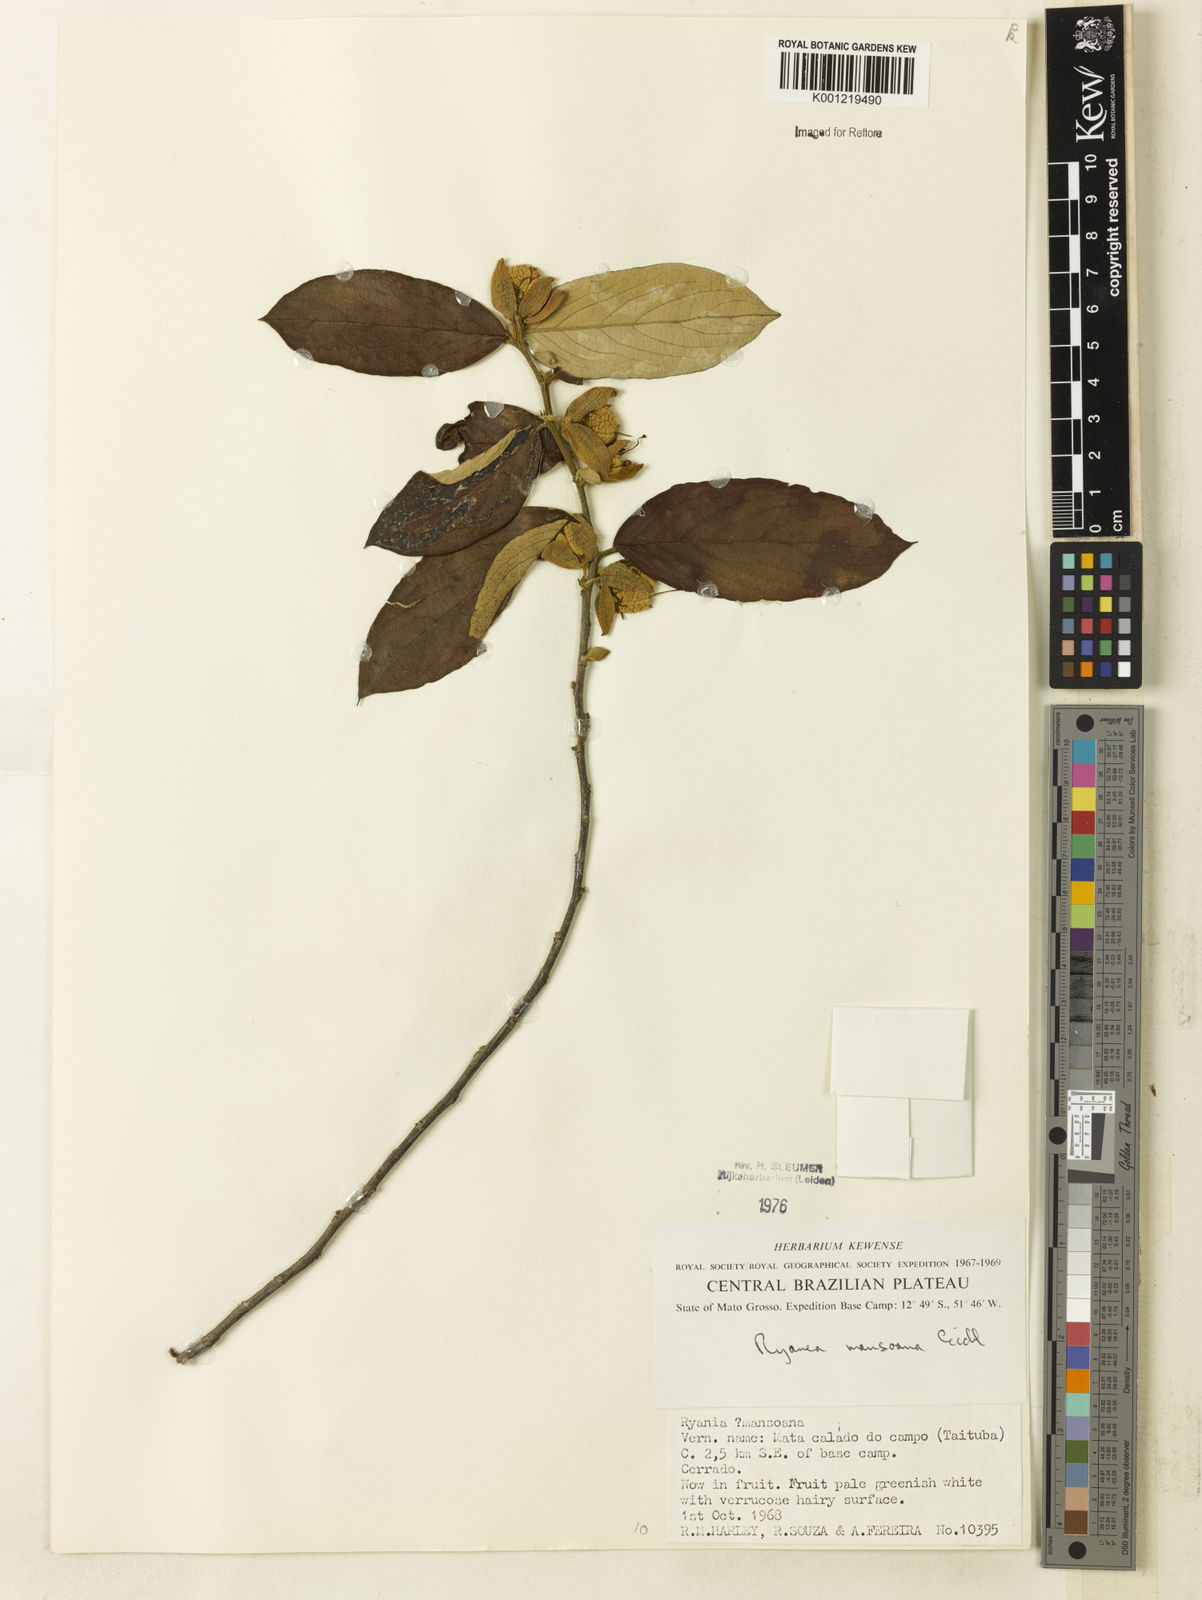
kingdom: Plantae
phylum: Tracheophyta
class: Magnoliopsida
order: Malpighiales
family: Salicaceae
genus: Ryania
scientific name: Ryania mansoana
